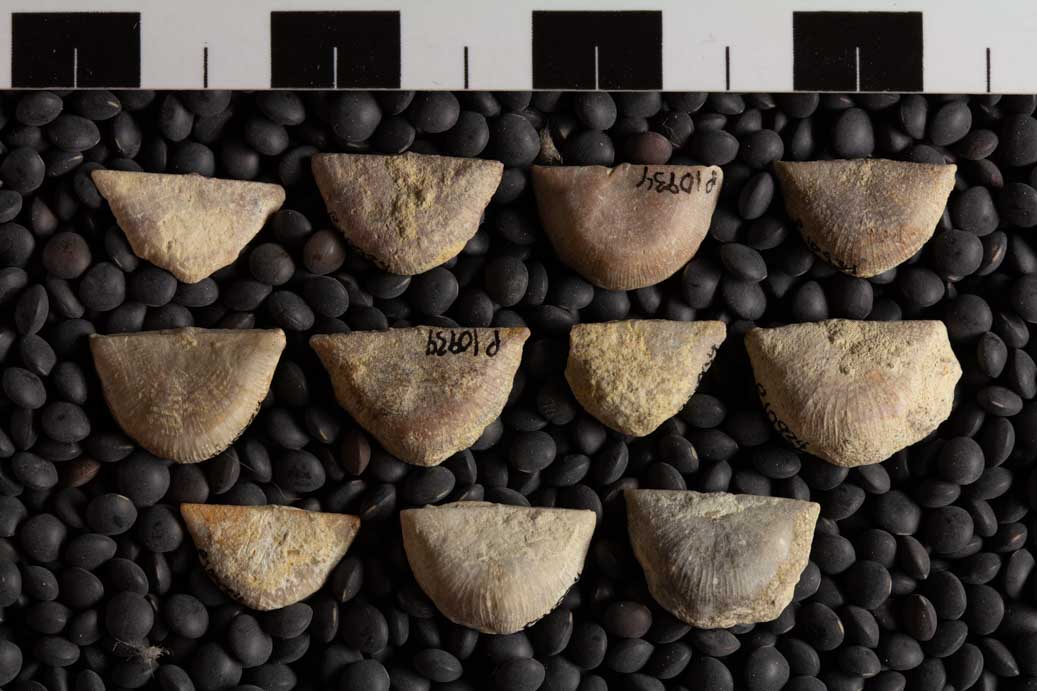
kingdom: Animalia
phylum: Brachiopoda
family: Strophomenidae
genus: Nasutimena
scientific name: Nasutimena Strophomena fluctuosa
